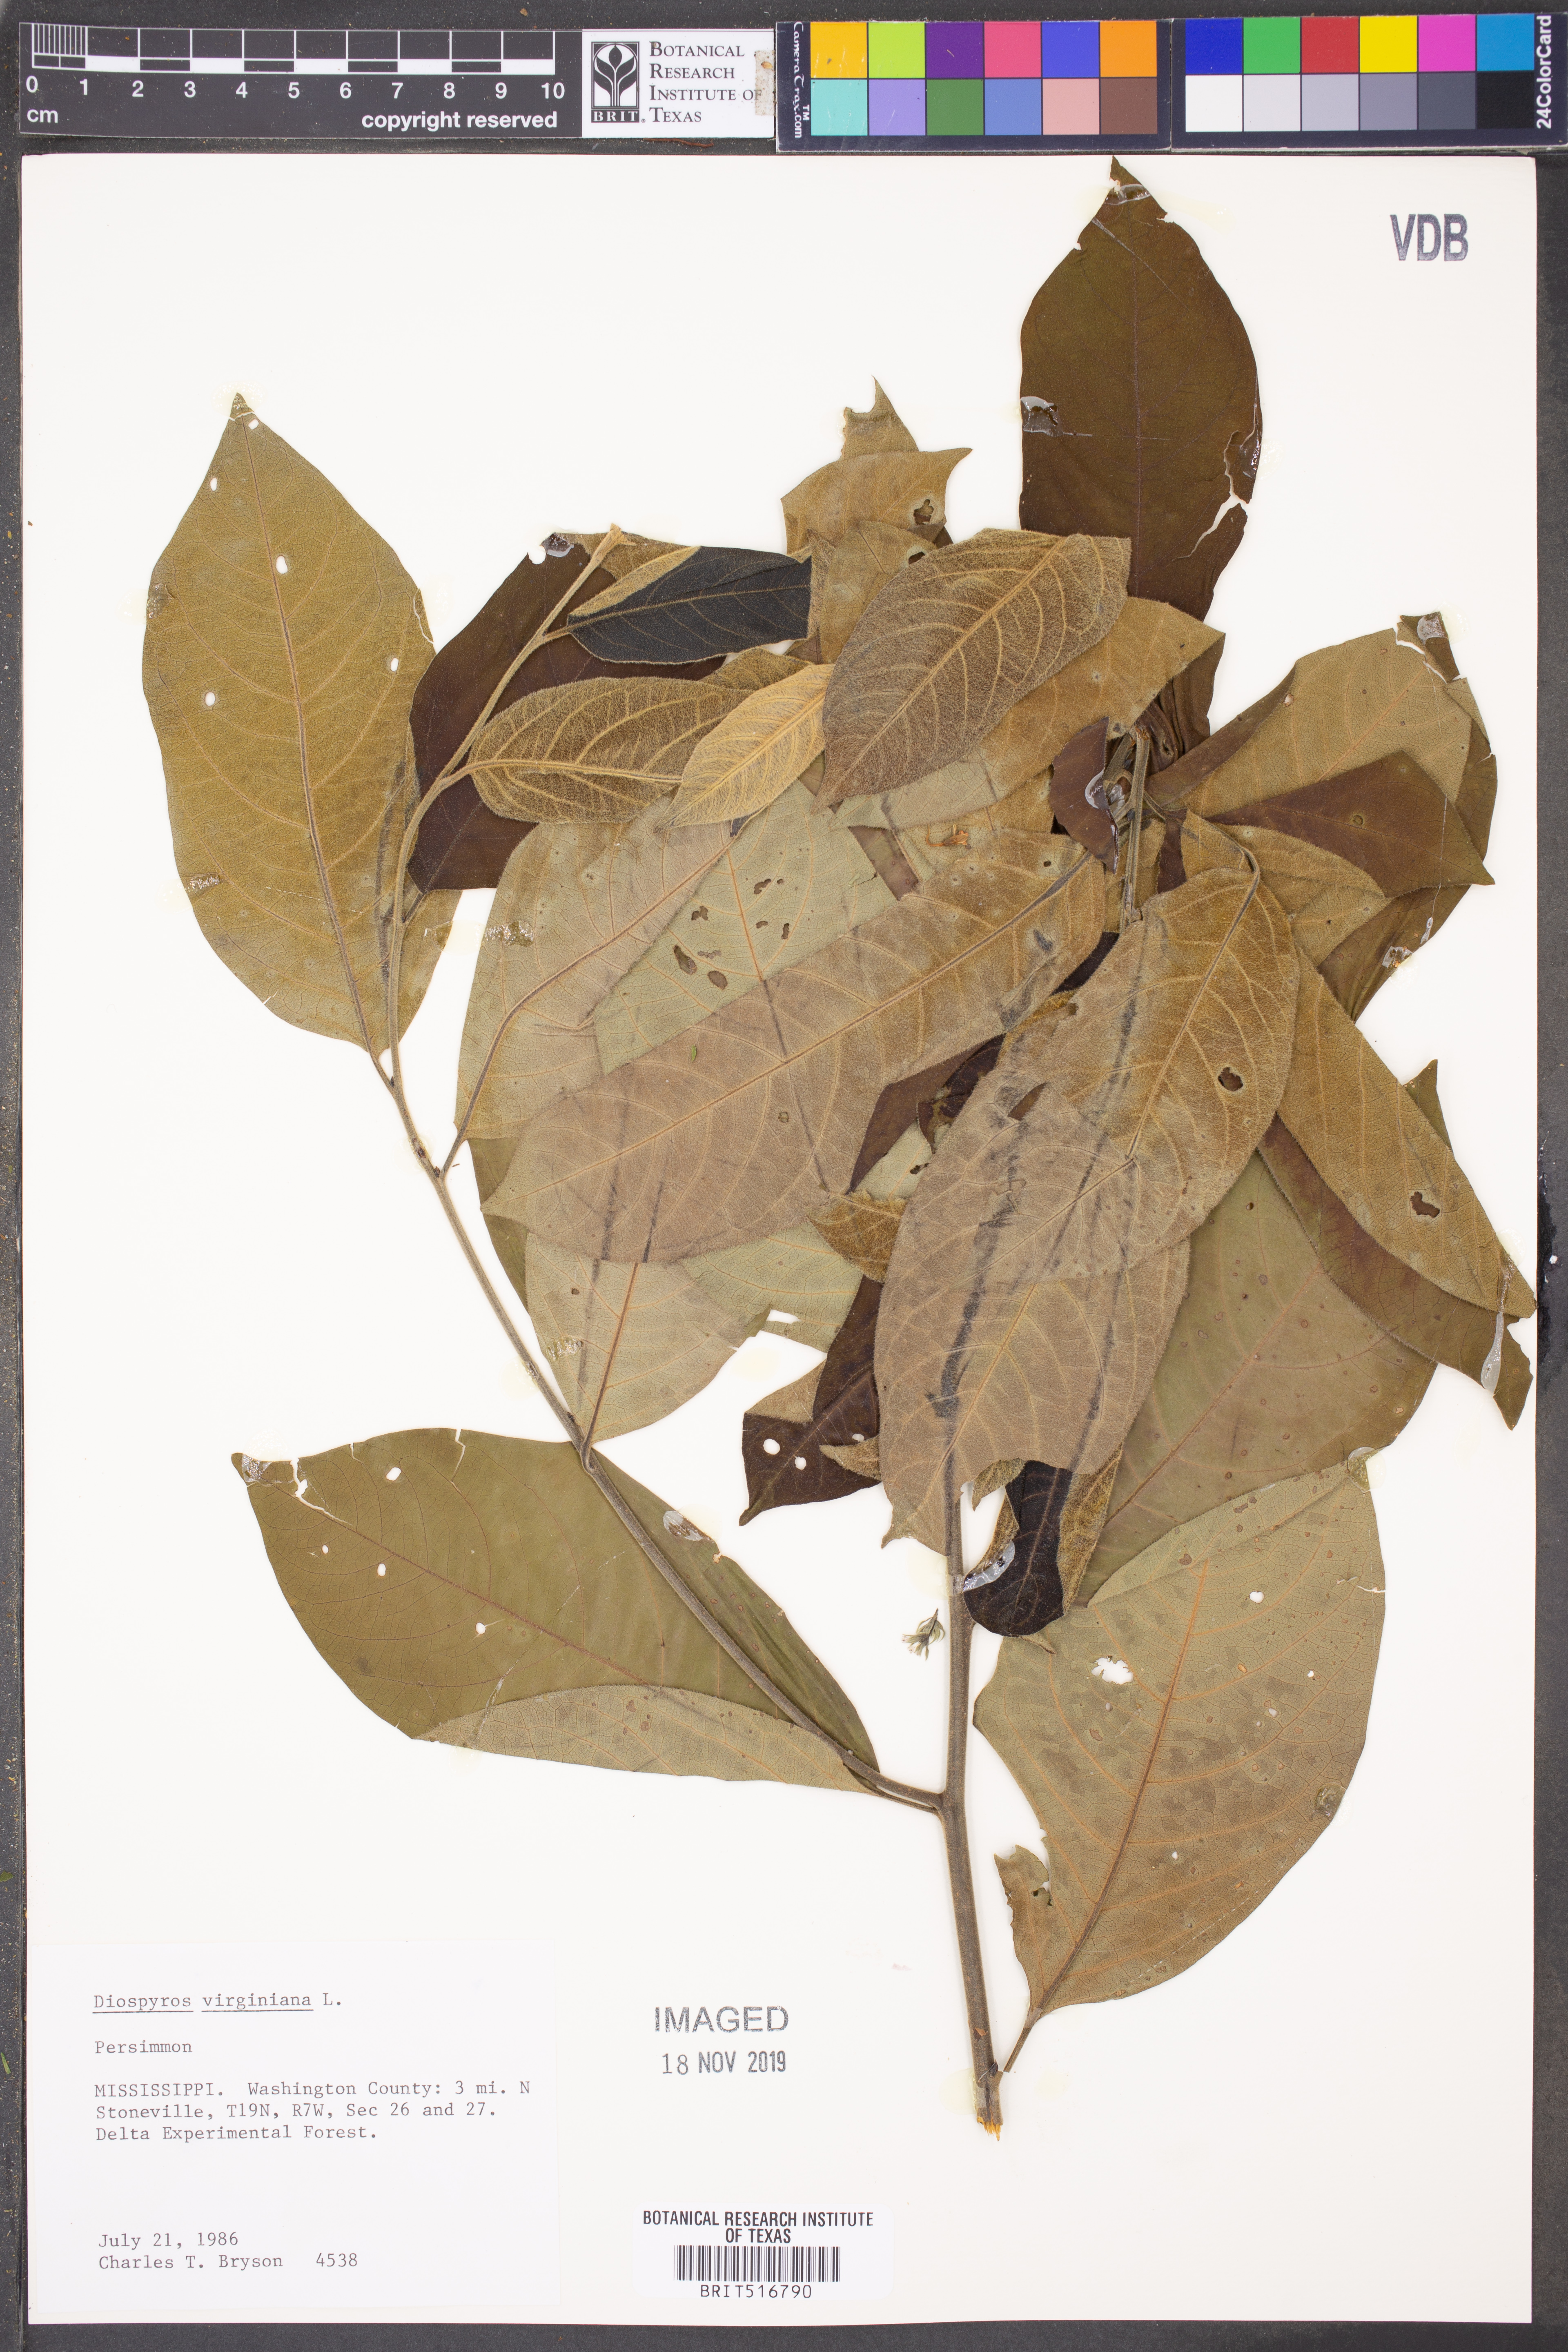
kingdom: Plantae
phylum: Tracheophyta
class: Magnoliopsida
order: Ericales
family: Ebenaceae
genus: Diospyros
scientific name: Diospyros virginiana
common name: Persimmon
